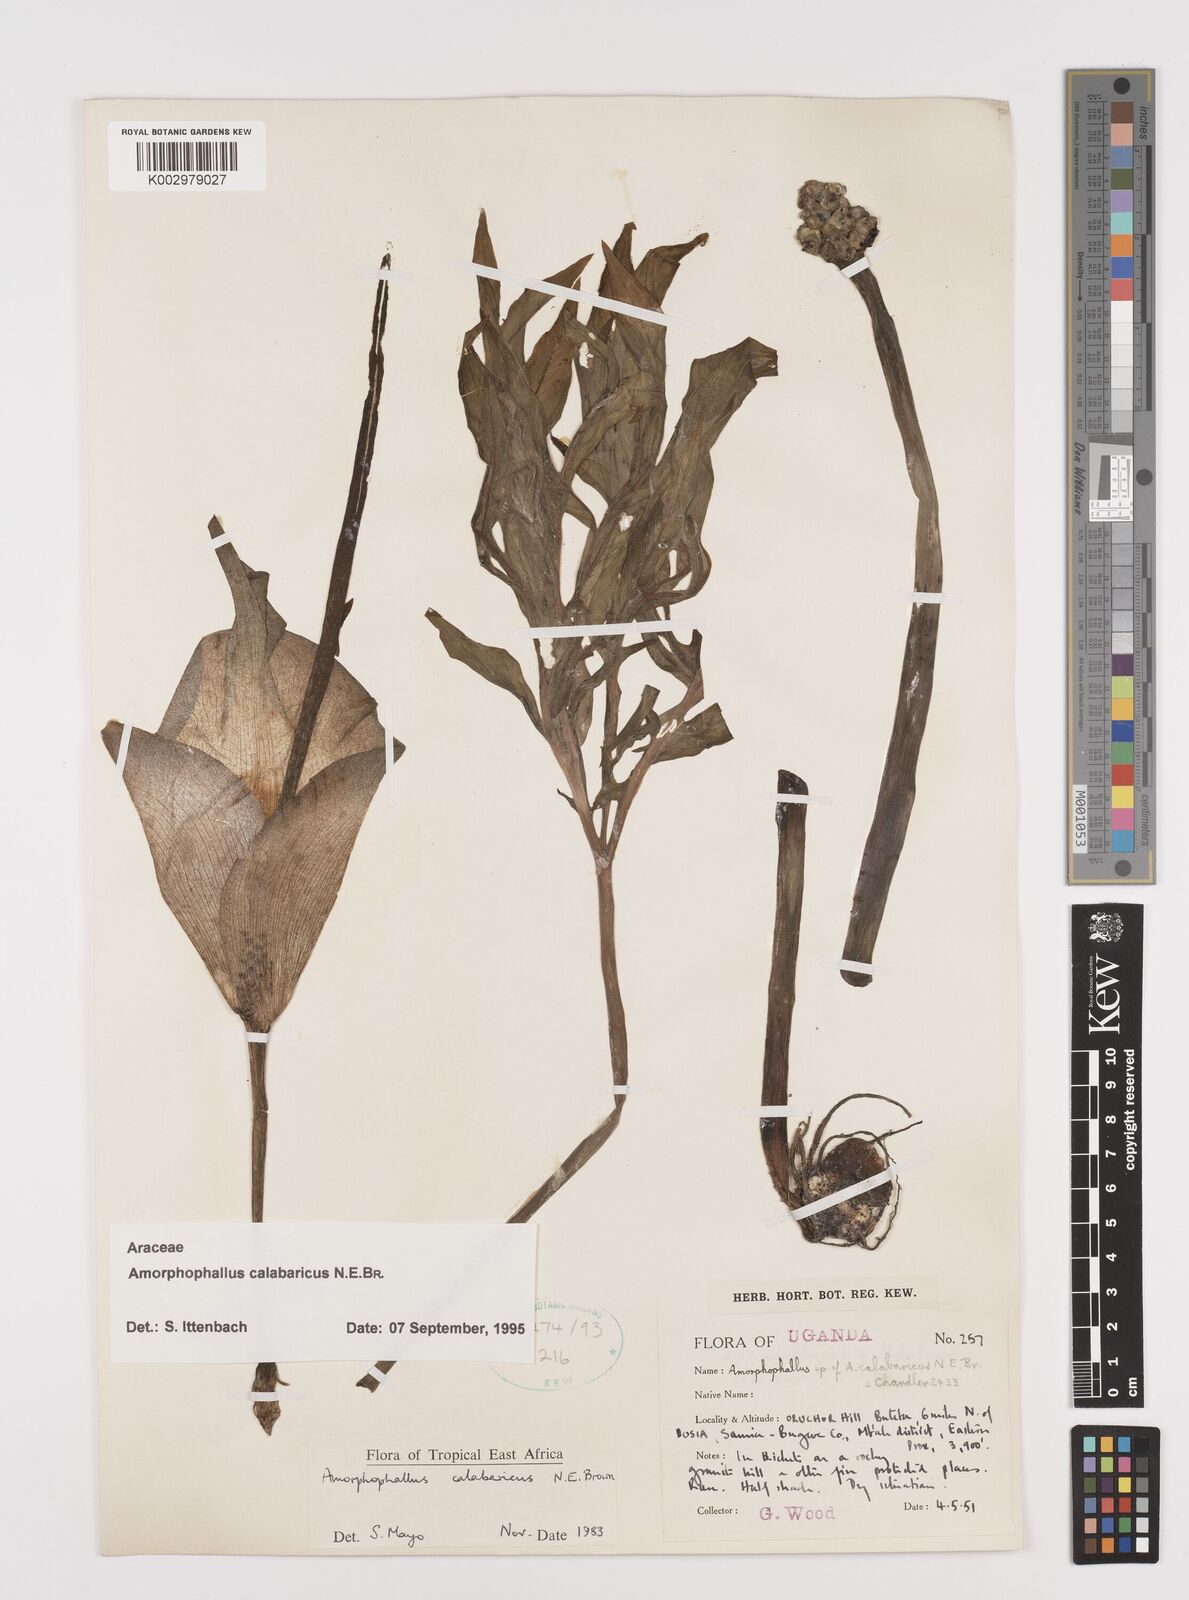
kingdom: Plantae
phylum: Tracheophyta
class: Liliopsida
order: Alismatales
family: Araceae
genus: Amorphophallus
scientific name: Amorphophallus calabaricus
